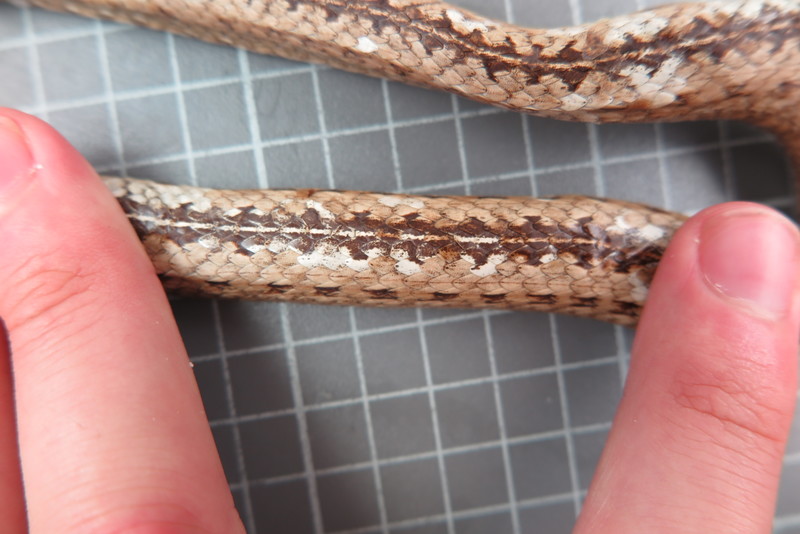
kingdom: Animalia
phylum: Chordata
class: Squamata
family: Psammophiidae
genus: Mimophis
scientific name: Mimophis
